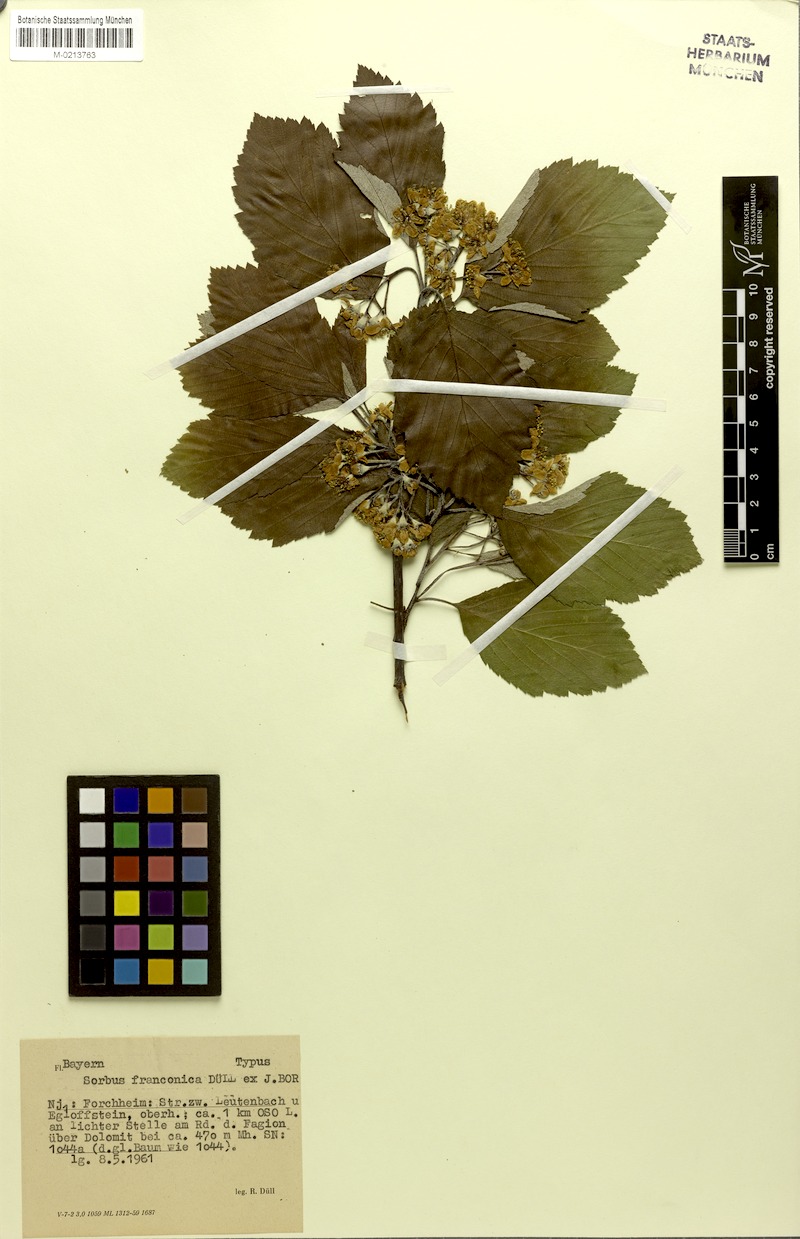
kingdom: Plantae
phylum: Tracheophyta
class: Magnoliopsida
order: Rosales
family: Rosaceae
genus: Karpatiosorbus
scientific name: Karpatiosorbus franconica
